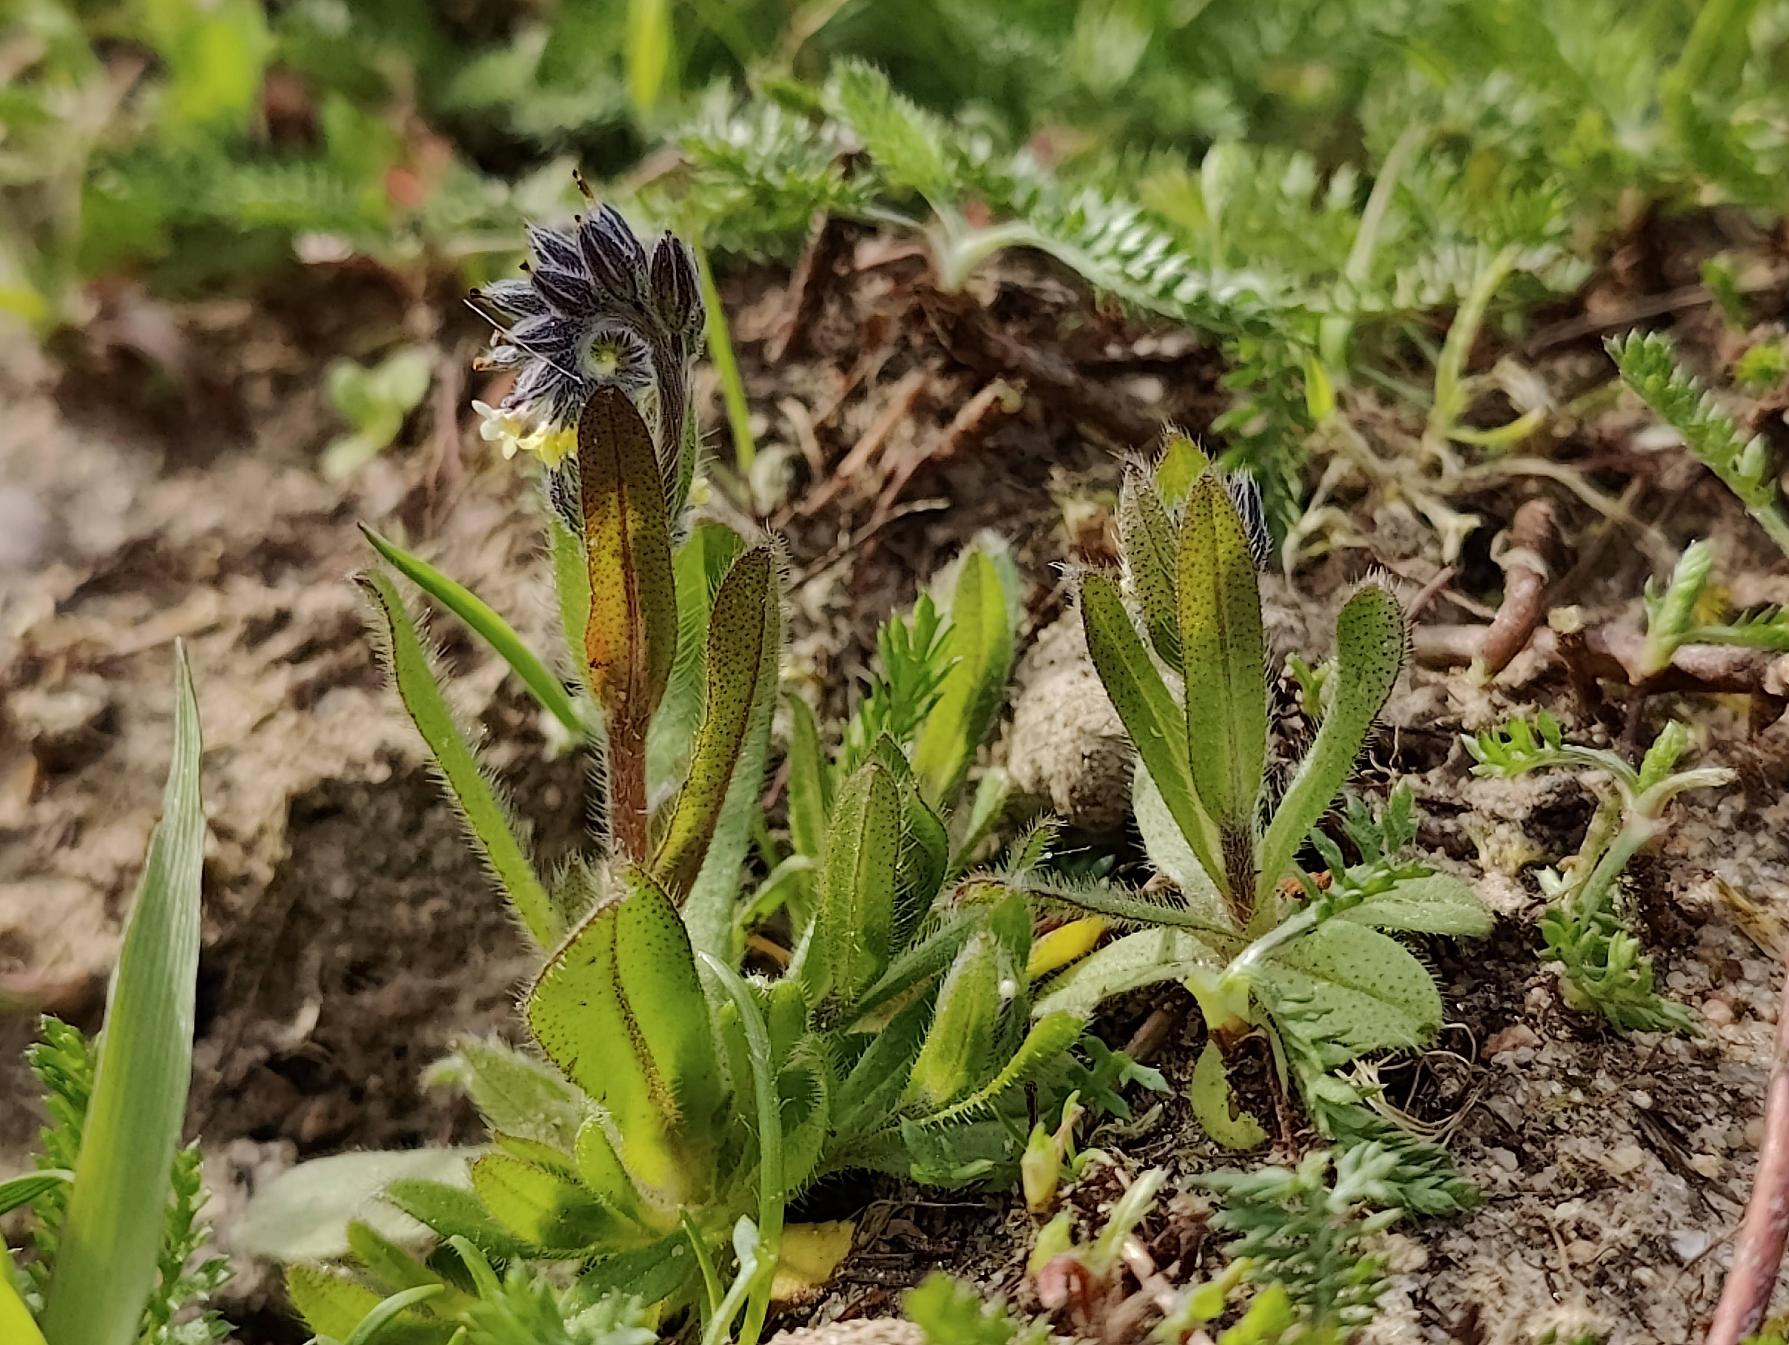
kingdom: Plantae
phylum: Tracheophyta
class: Magnoliopsida
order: Boraginales
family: Boraginaceae
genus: Myosotis
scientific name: Myosotis discolor
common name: Forskelligfarvet forglemmigej
